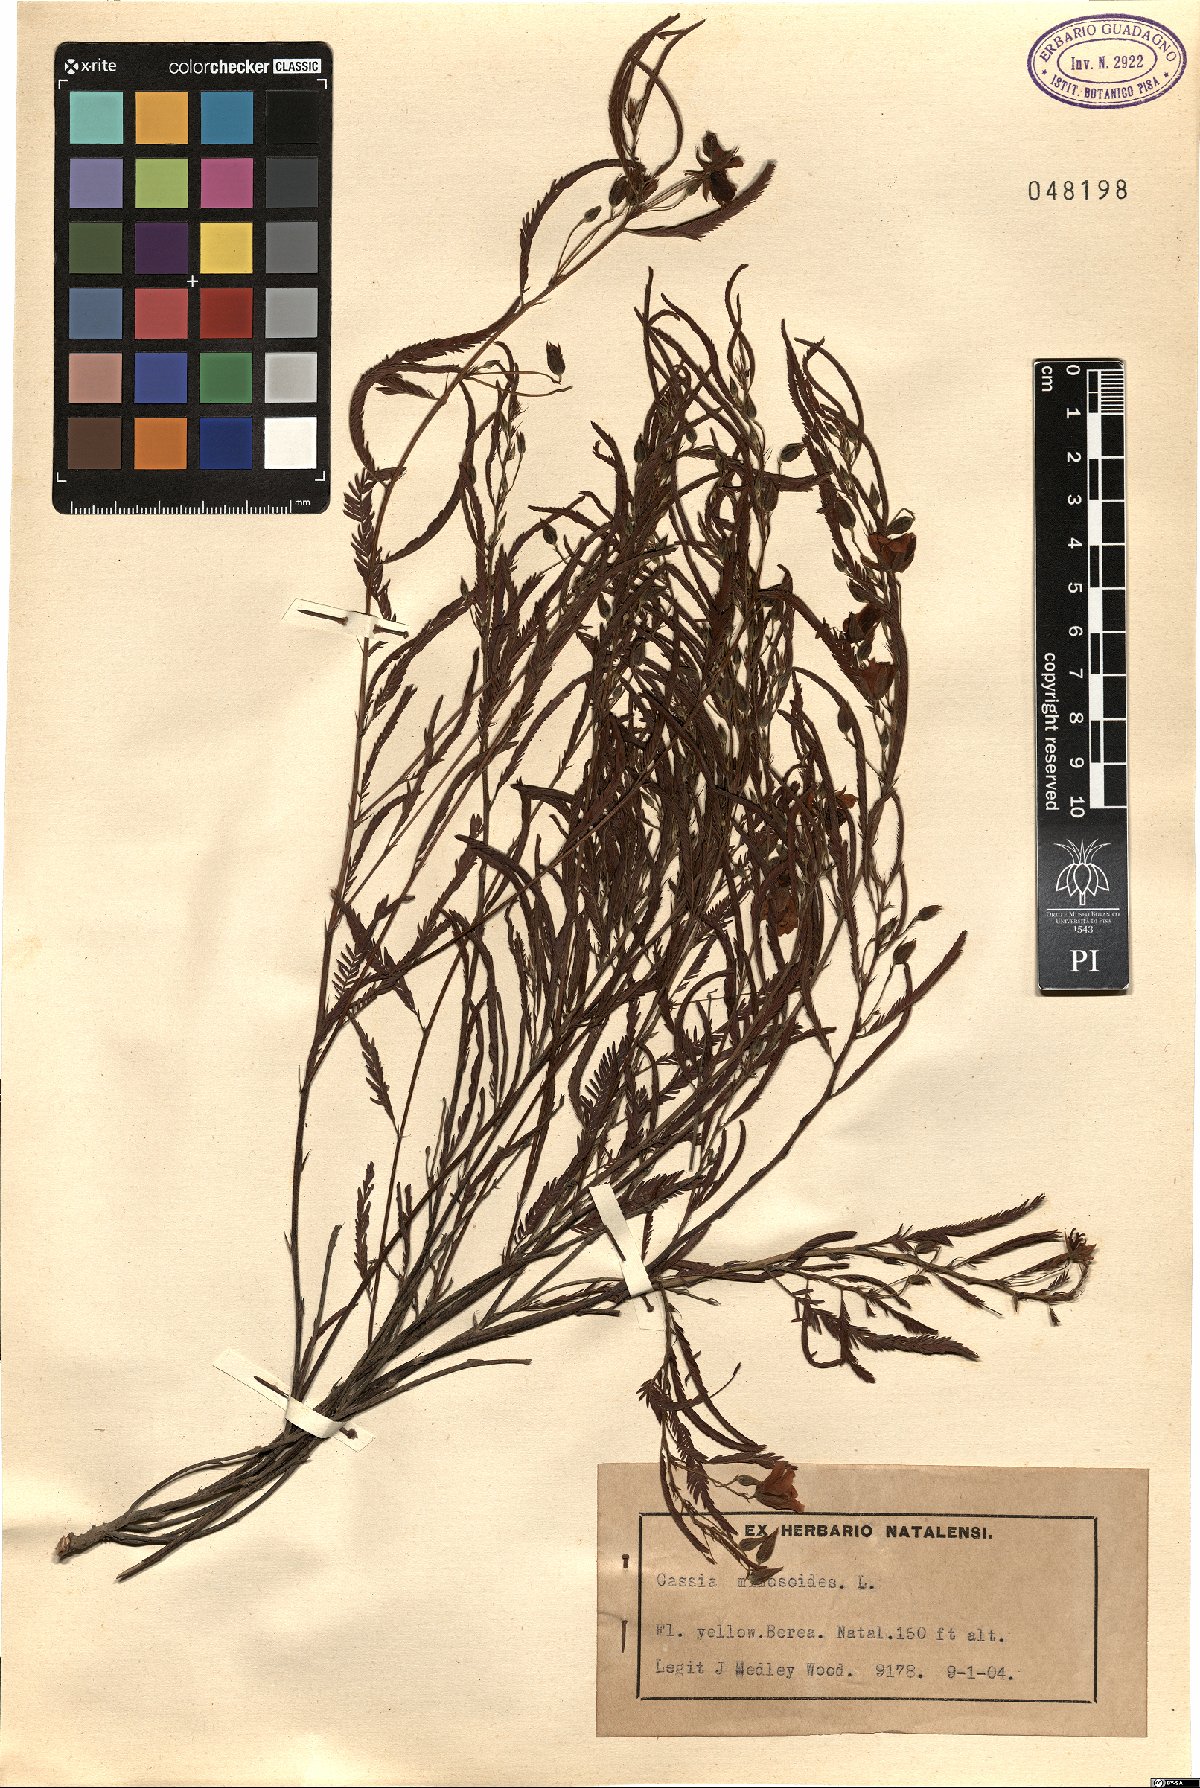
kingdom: Plantae
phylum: Tracheophyta
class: Magnoliopsida
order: Fabales
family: Fabaceae
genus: Chamaecrista
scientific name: Chamaecrista mimosoides
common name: Fish-bone cassia
